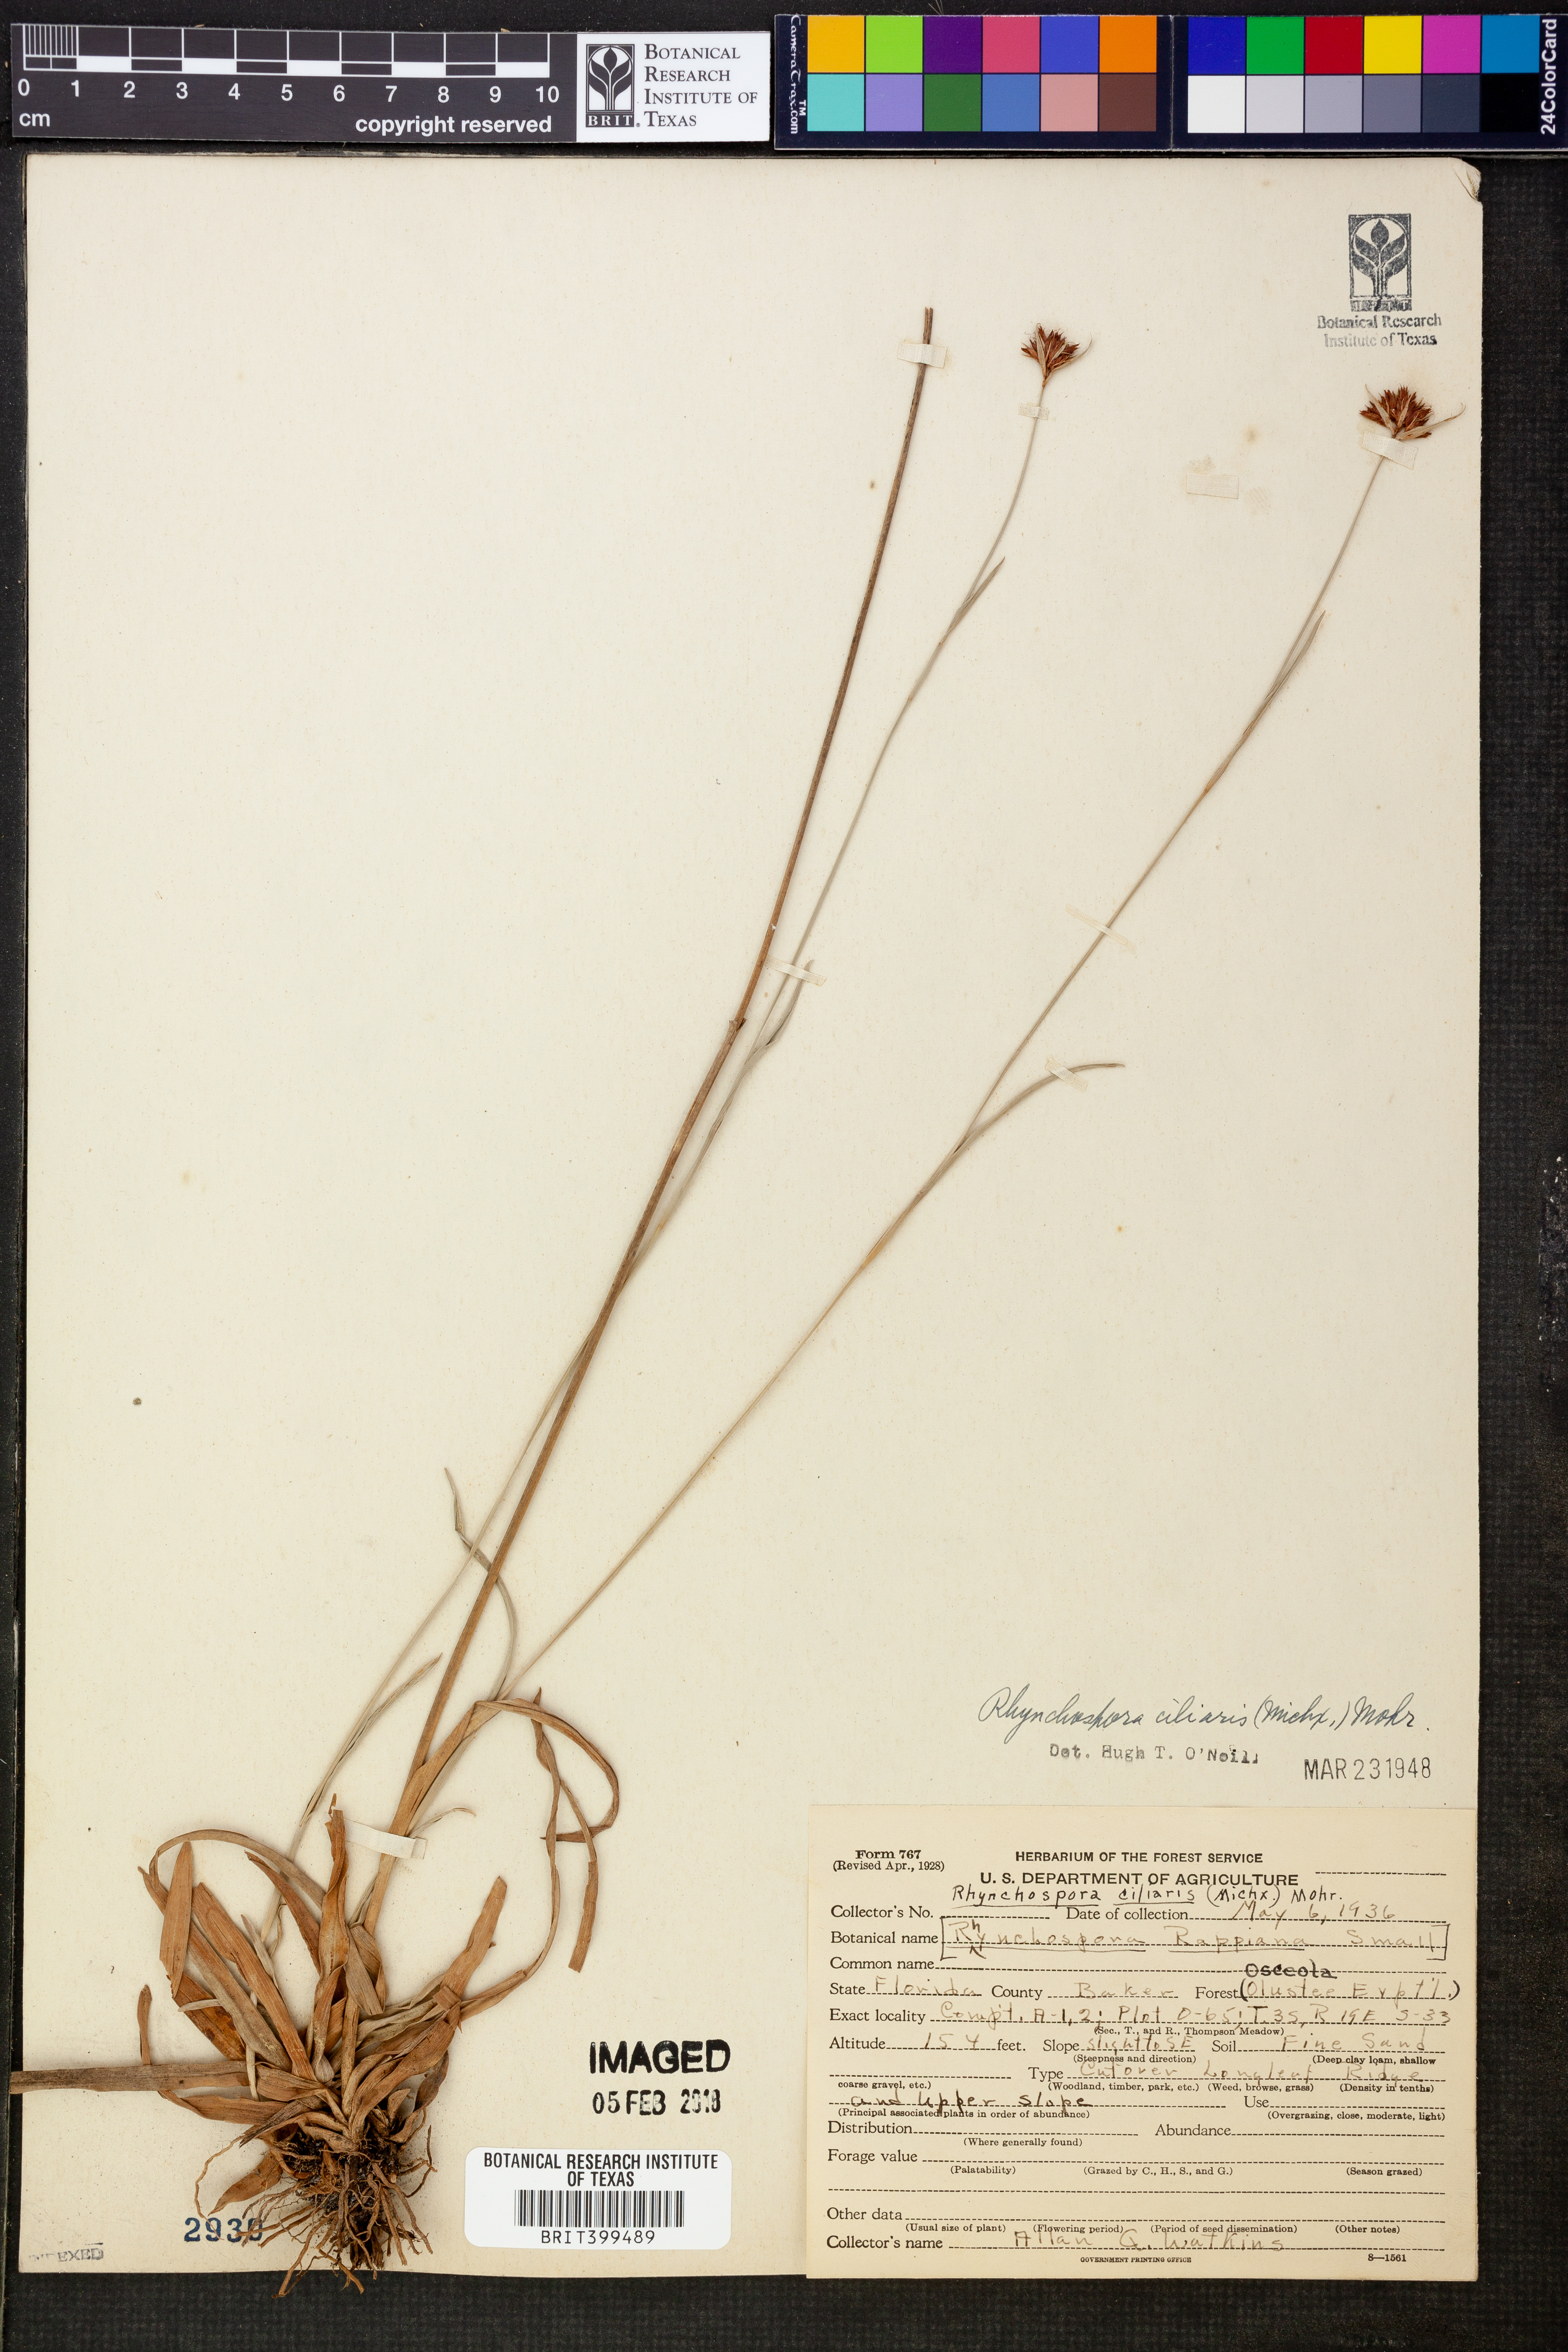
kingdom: Plantae
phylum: Tracheophyta
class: Liliopsida
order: Poales
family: Cyperaceae
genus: Rhynchospora
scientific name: Rhynchospora ciliaris
